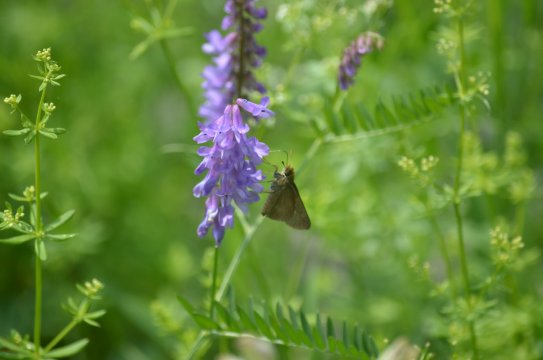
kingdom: Animalia
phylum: Arthropoda
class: Insecta
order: Lepidoptera
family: Hesperiidae
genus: Euphyes
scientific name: Euphyes vestris
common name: Dun Skipper
